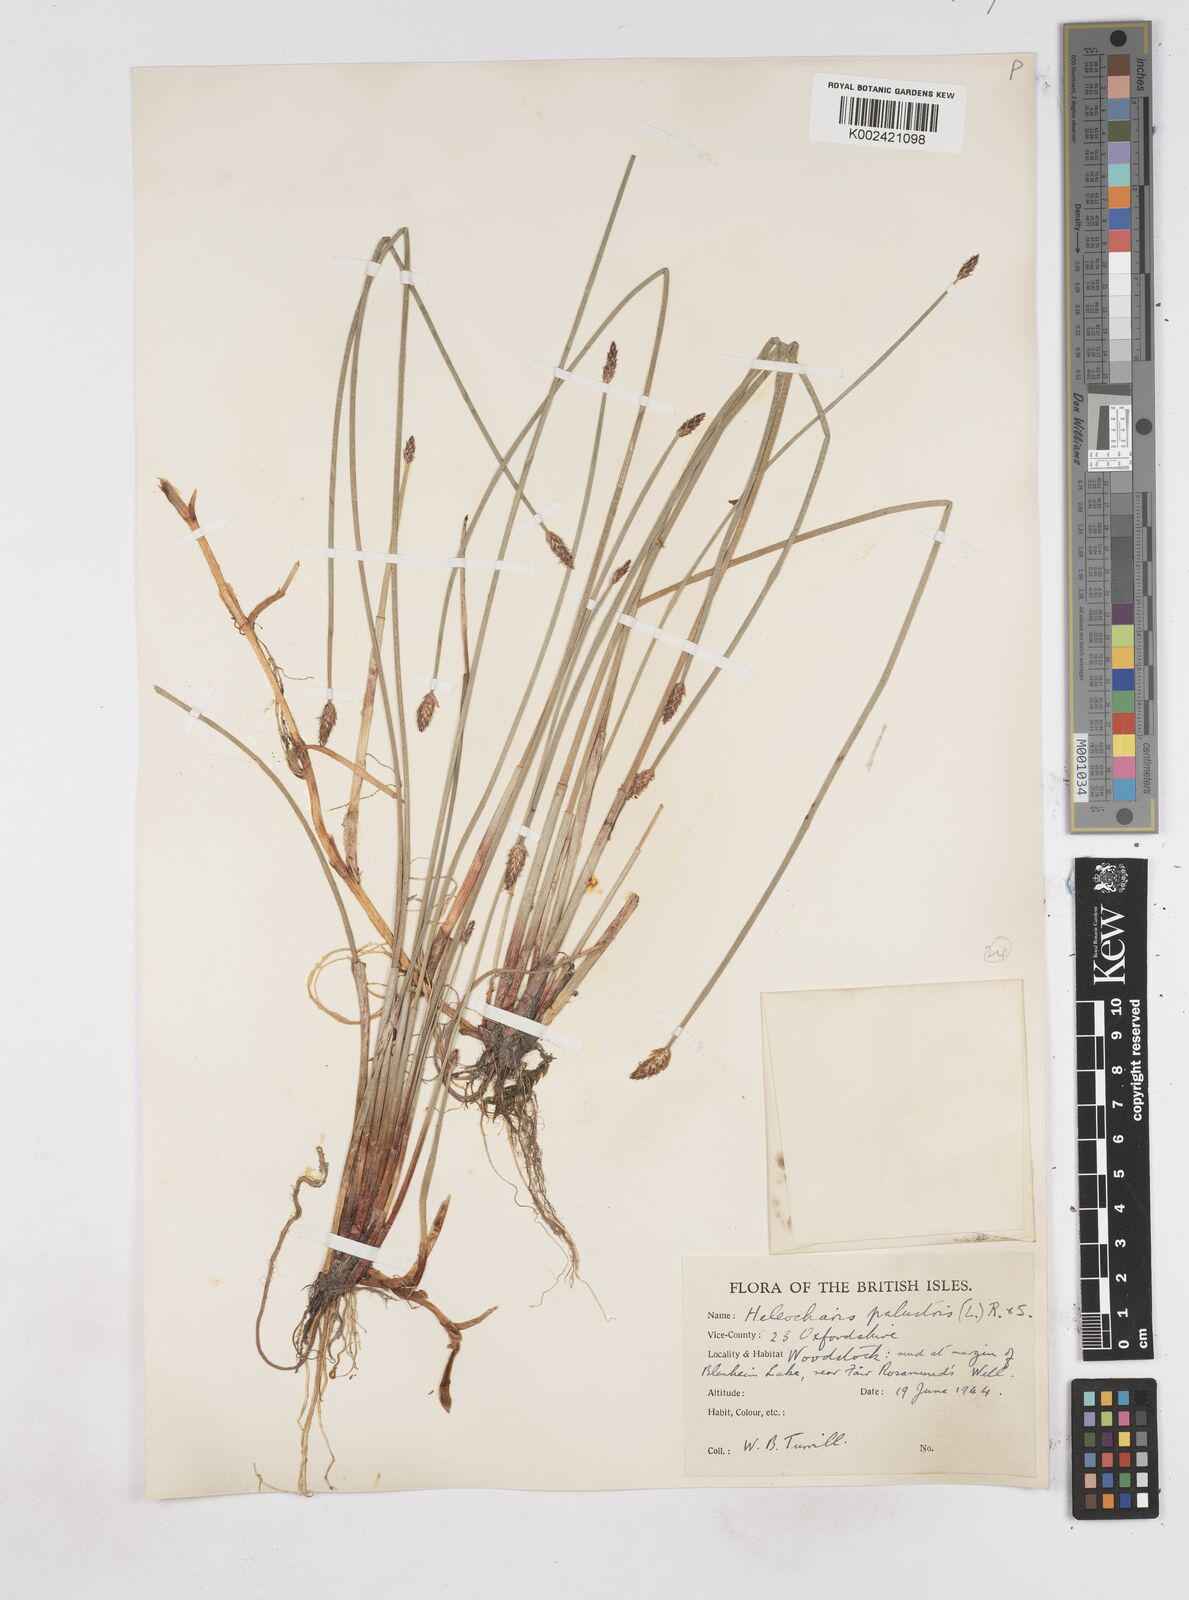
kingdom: Plantae
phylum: Tracheophyta
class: Liliopsida
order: Poales
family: Cyperaceae
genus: Eleocharis
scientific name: Eleocharis palustris
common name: Common spike-rush
